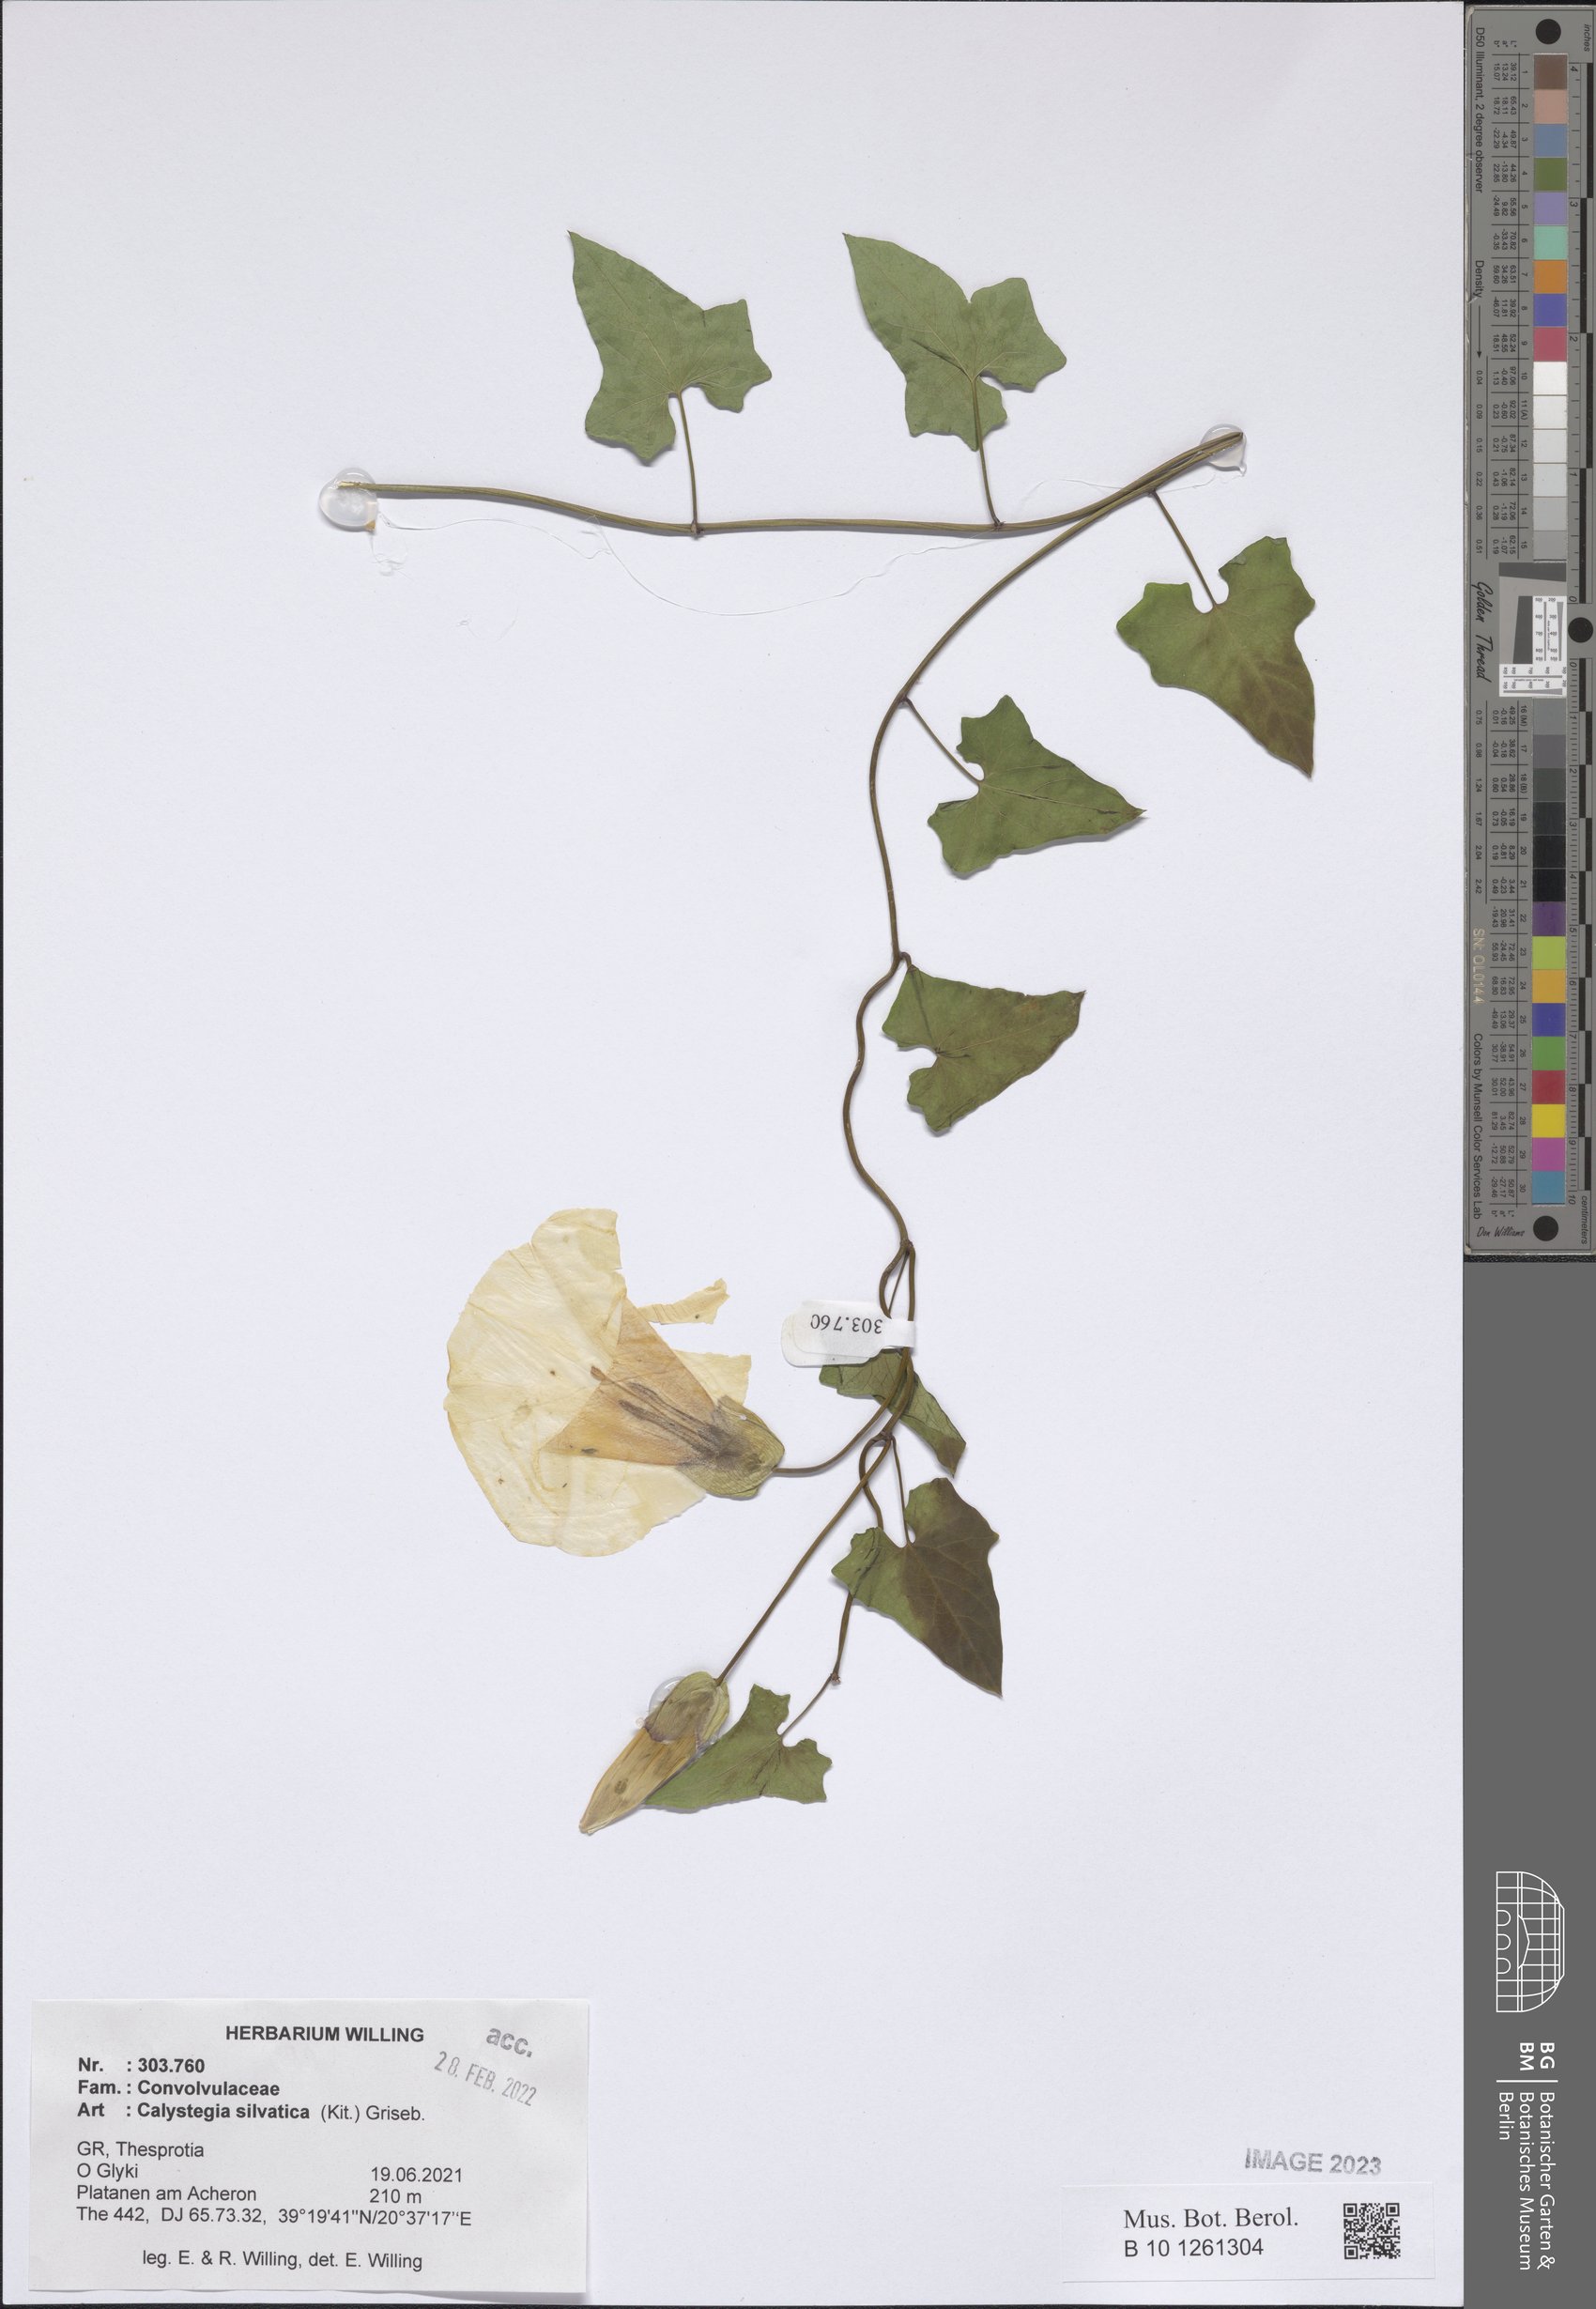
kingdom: Plantae
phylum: Tracheophyta
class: Magnoliopsida
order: Solanales
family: Convolvulaceae
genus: Calystegia
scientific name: Calystegia silvatica
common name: Large bindweed
